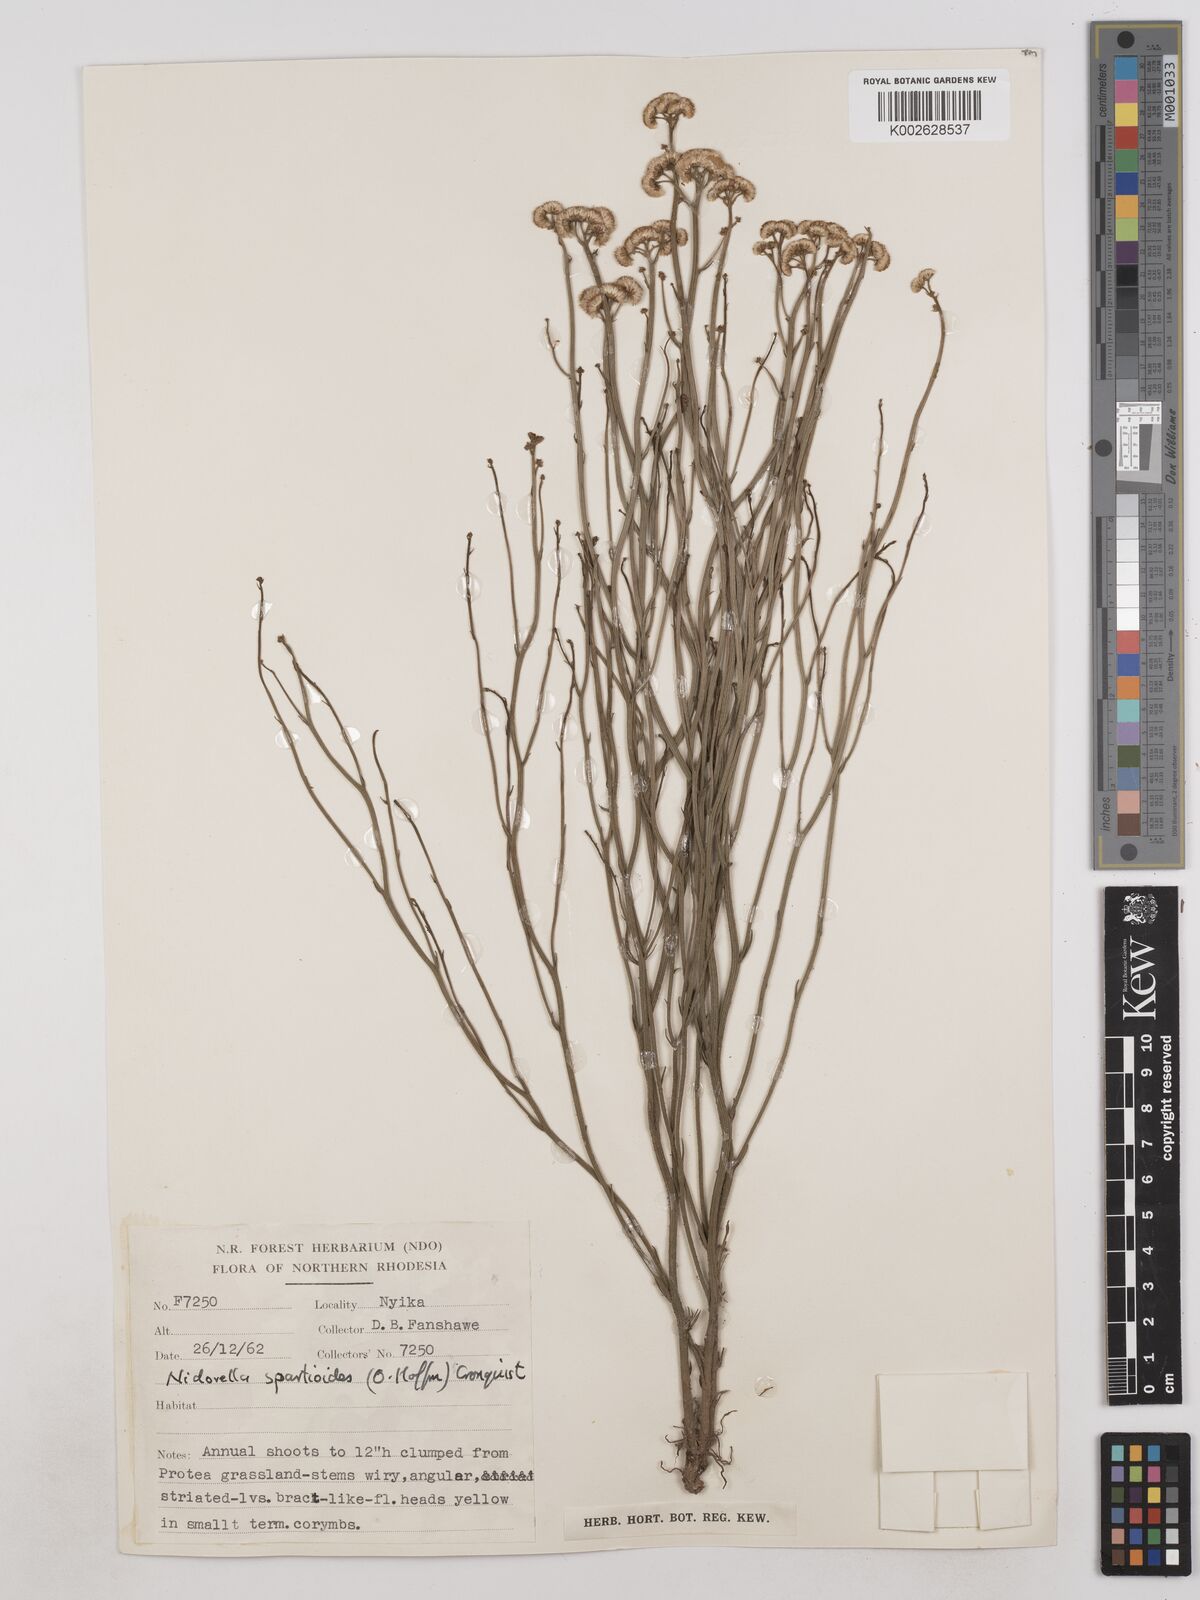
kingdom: Plantae
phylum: Tracheophyta
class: Magnoliopsida
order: Asterales
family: Asteraceae
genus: Nidorella
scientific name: Nidorella spartioides
